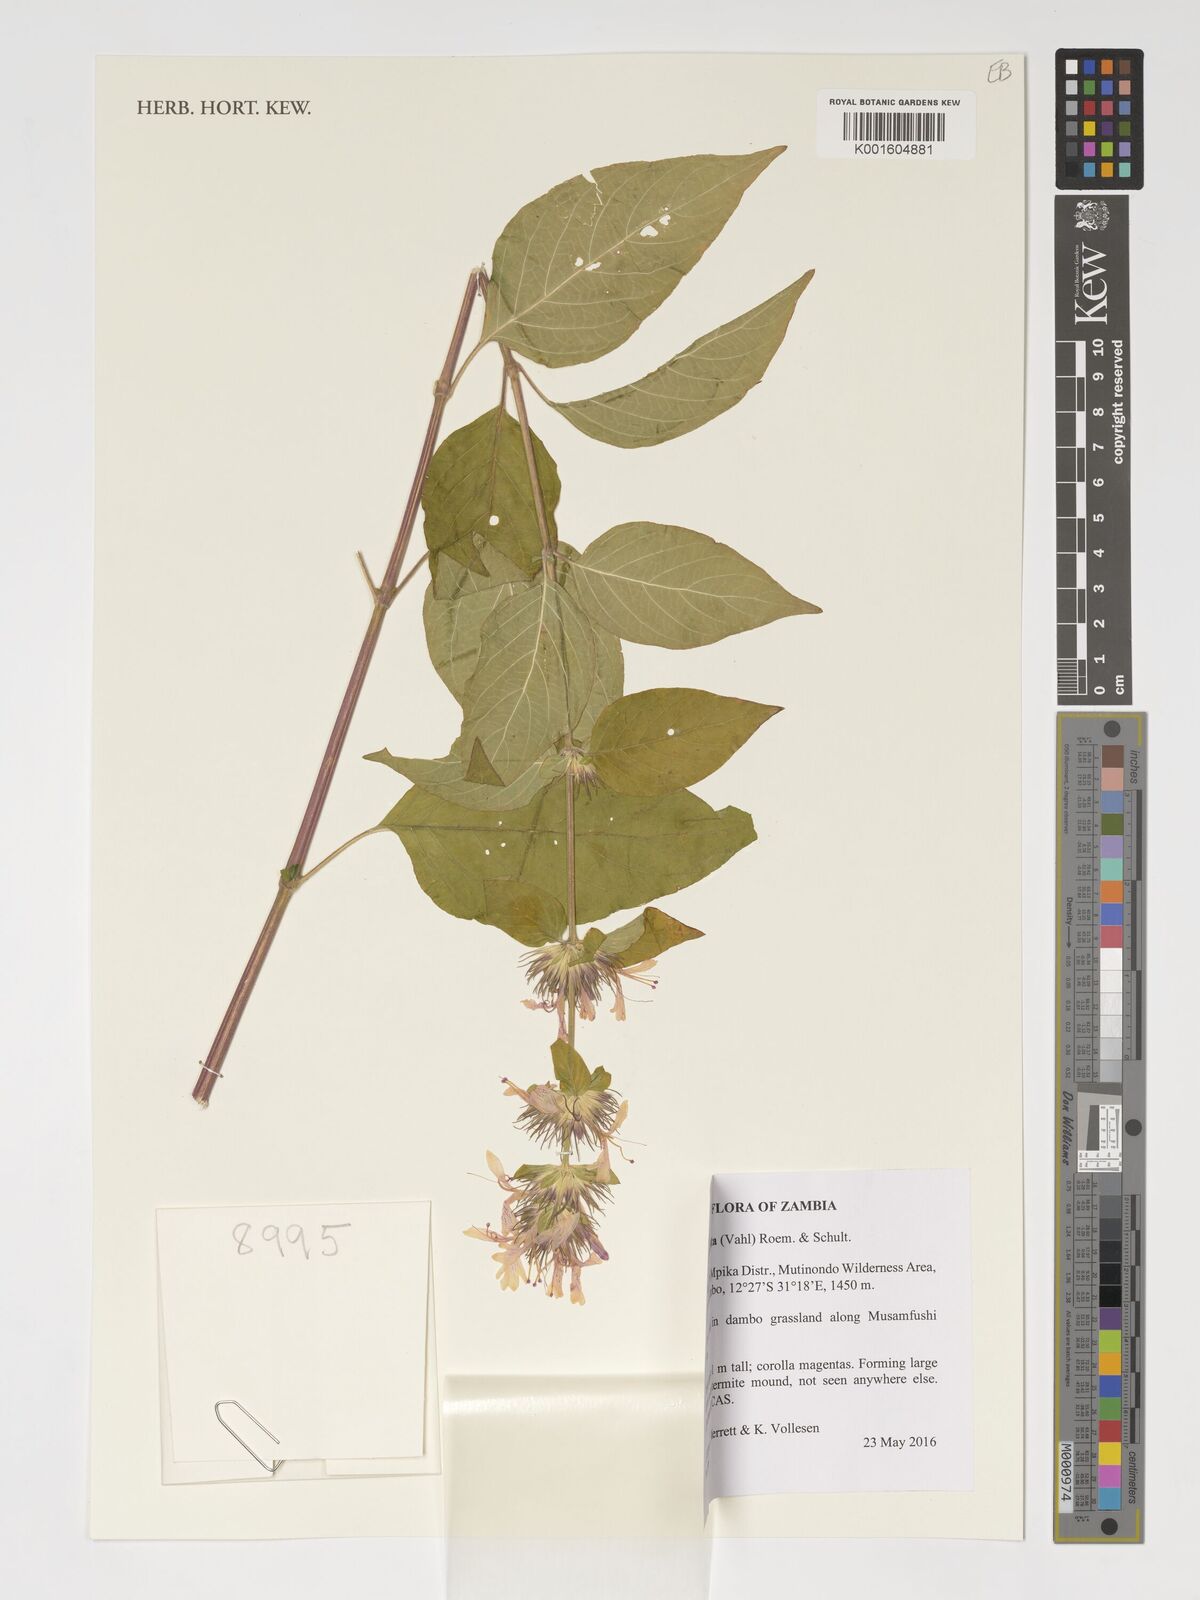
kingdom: Plantae
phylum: Tracheophyta
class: Magnoliopsida
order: Lamiales
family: Acanthaceae
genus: Hypoestes
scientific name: Hypoestes aristata
